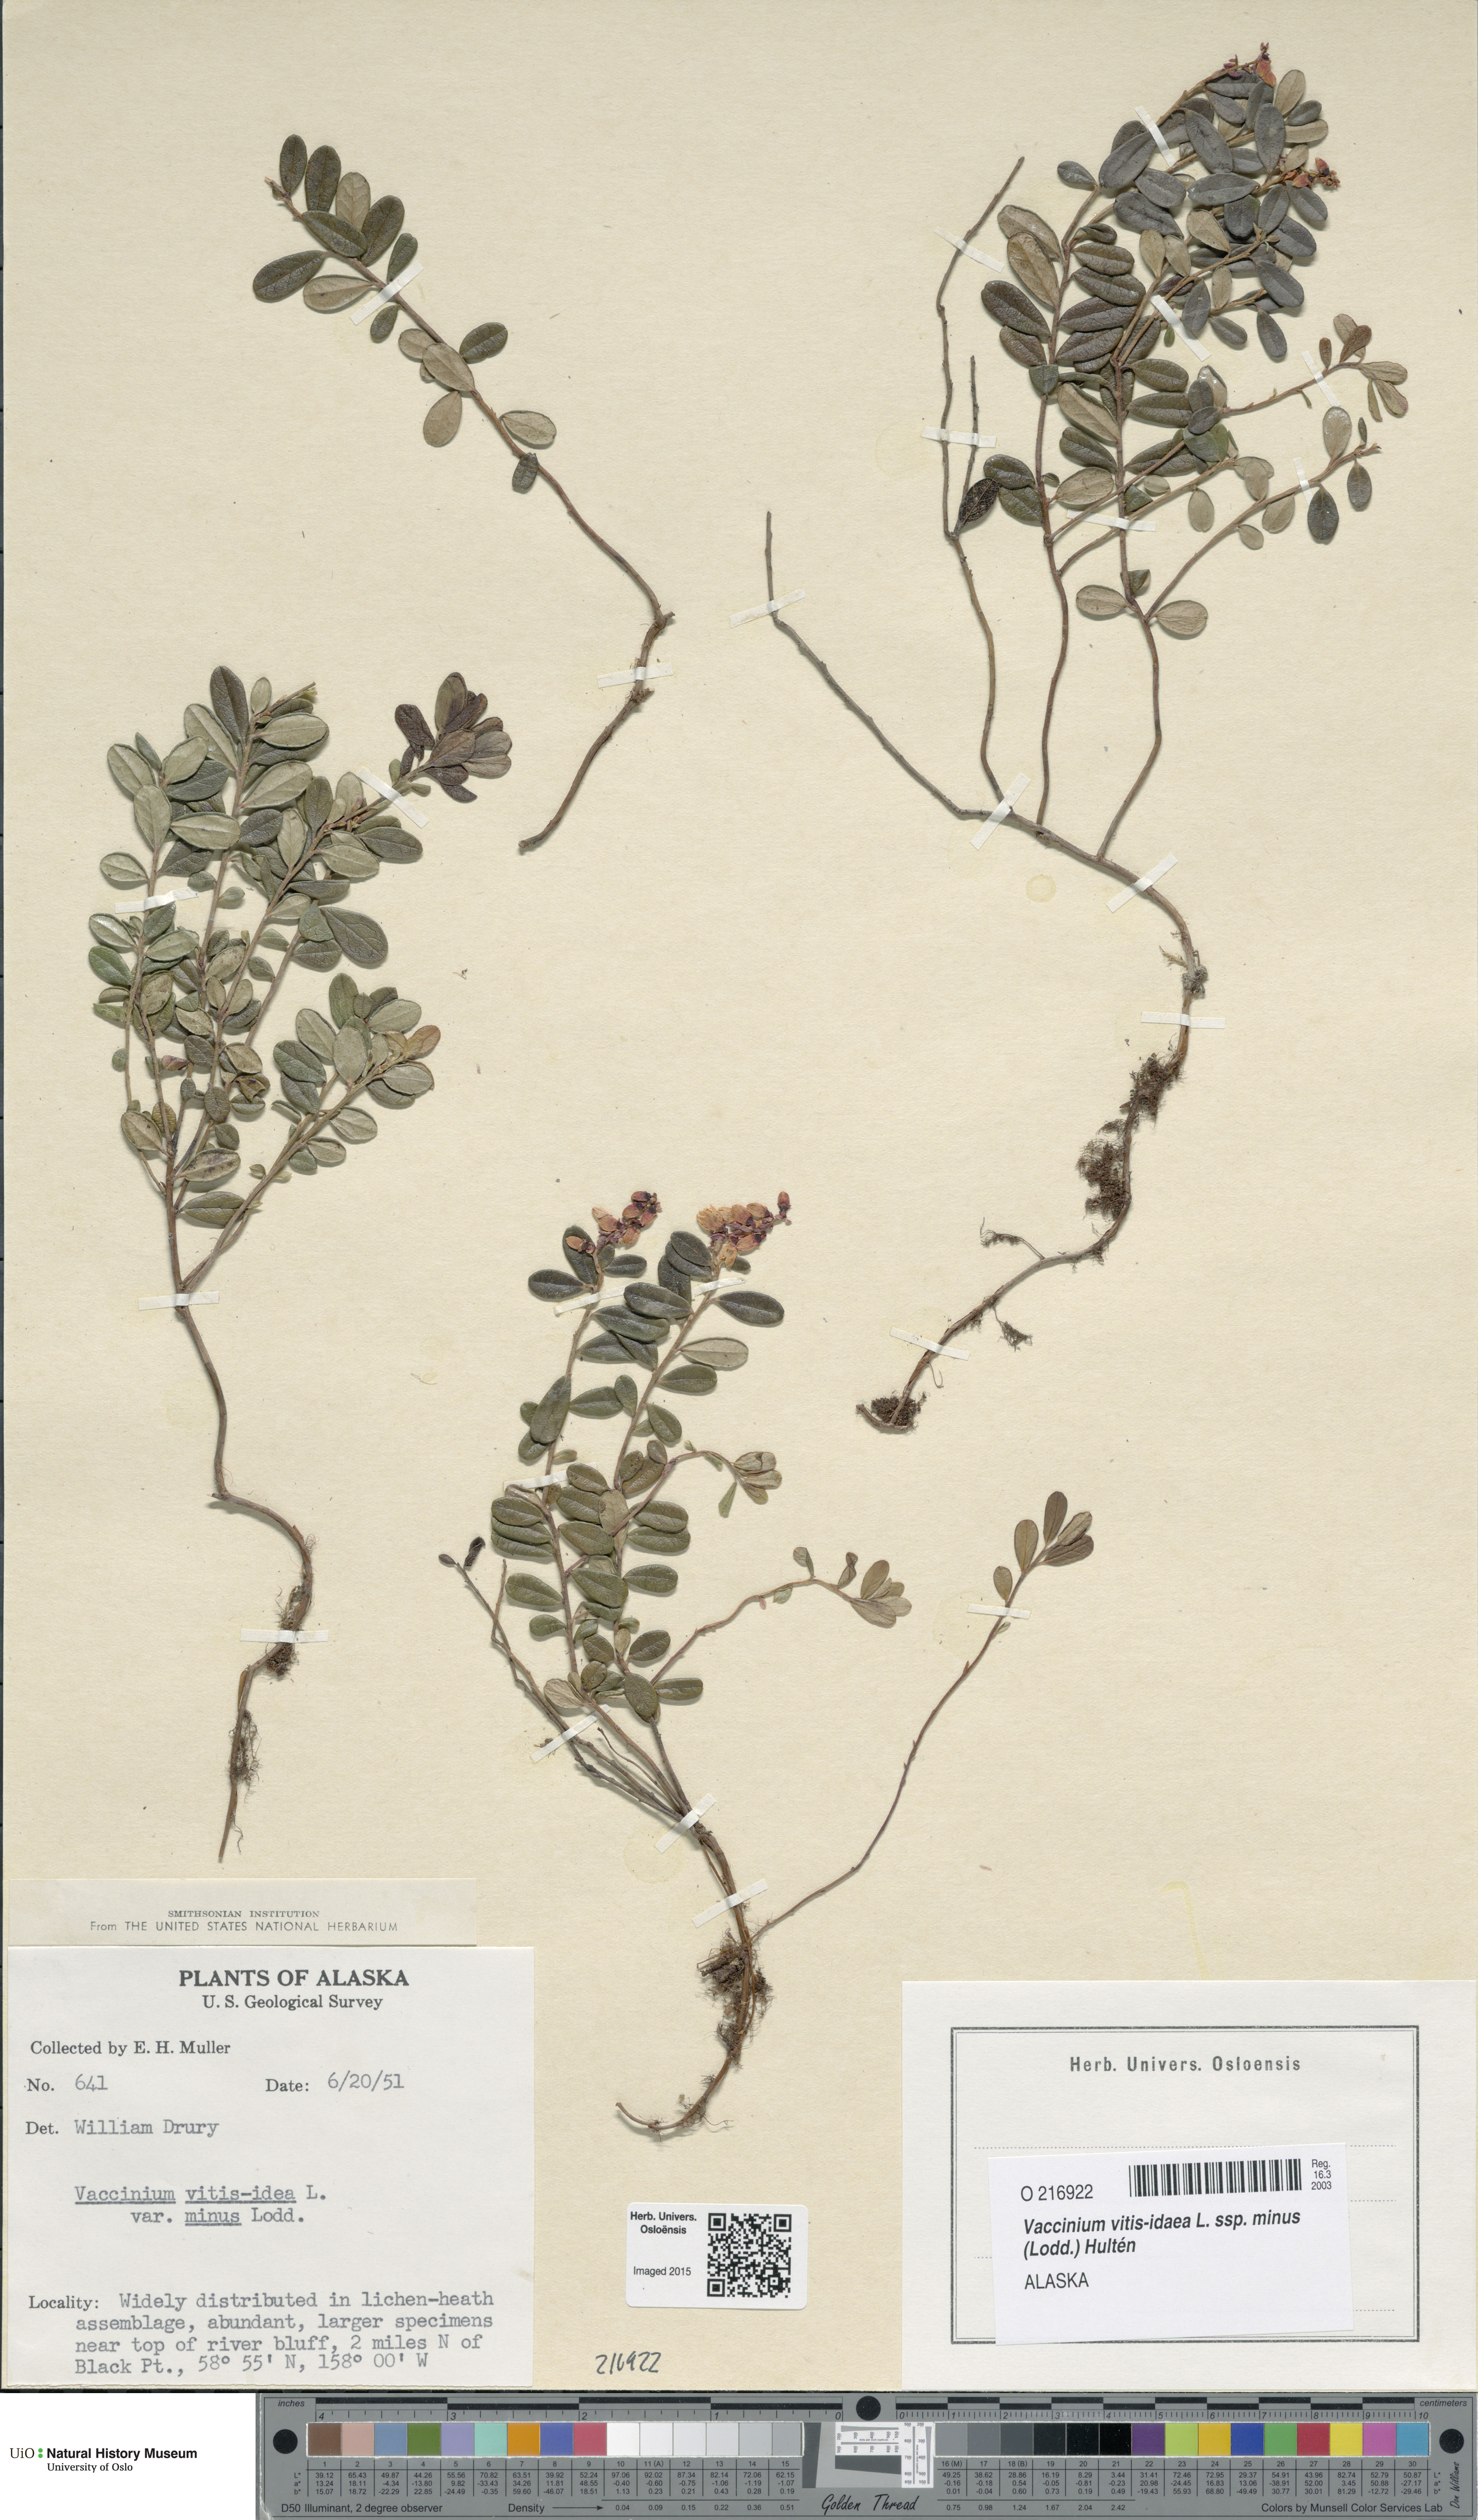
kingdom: Plantae
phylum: Tracheophyta
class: Magnoliopsida
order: Ericales
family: Ericaceae
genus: Vaccinium
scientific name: Vaccinium vitis-idaea
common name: Cowberry
